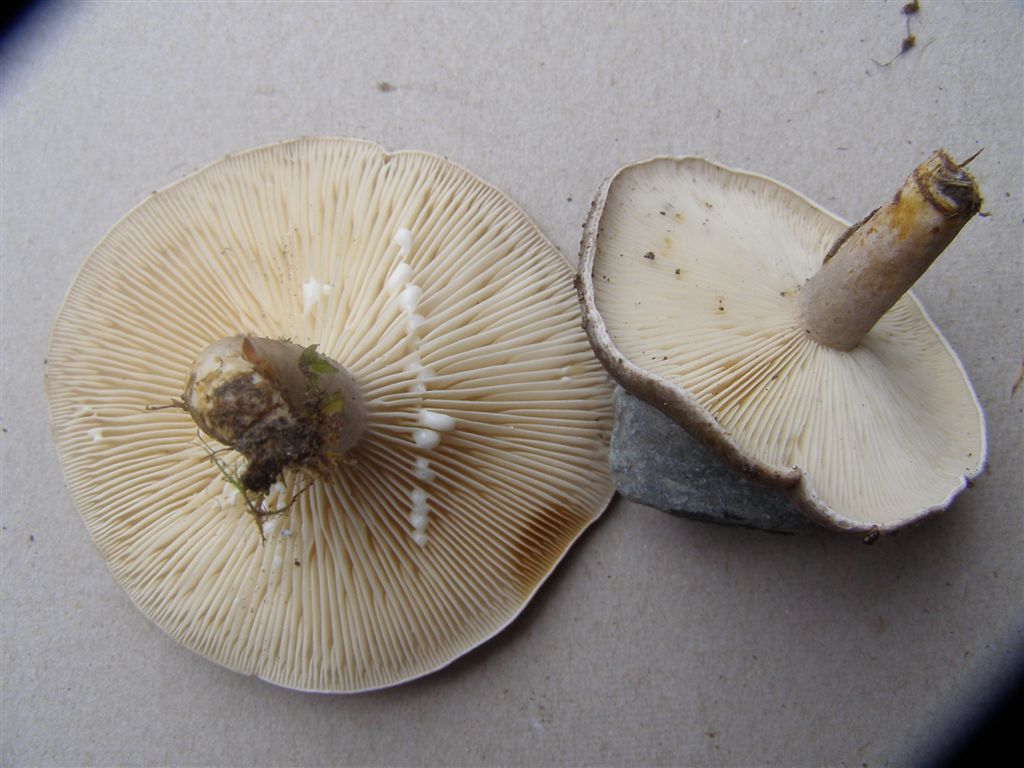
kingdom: Fungi
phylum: Basidiomycota
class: Agaricomycetes
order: Russulales
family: Russulaceae
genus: Lactarius
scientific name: Lactarius fluens
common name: lysrandet mælkehat
